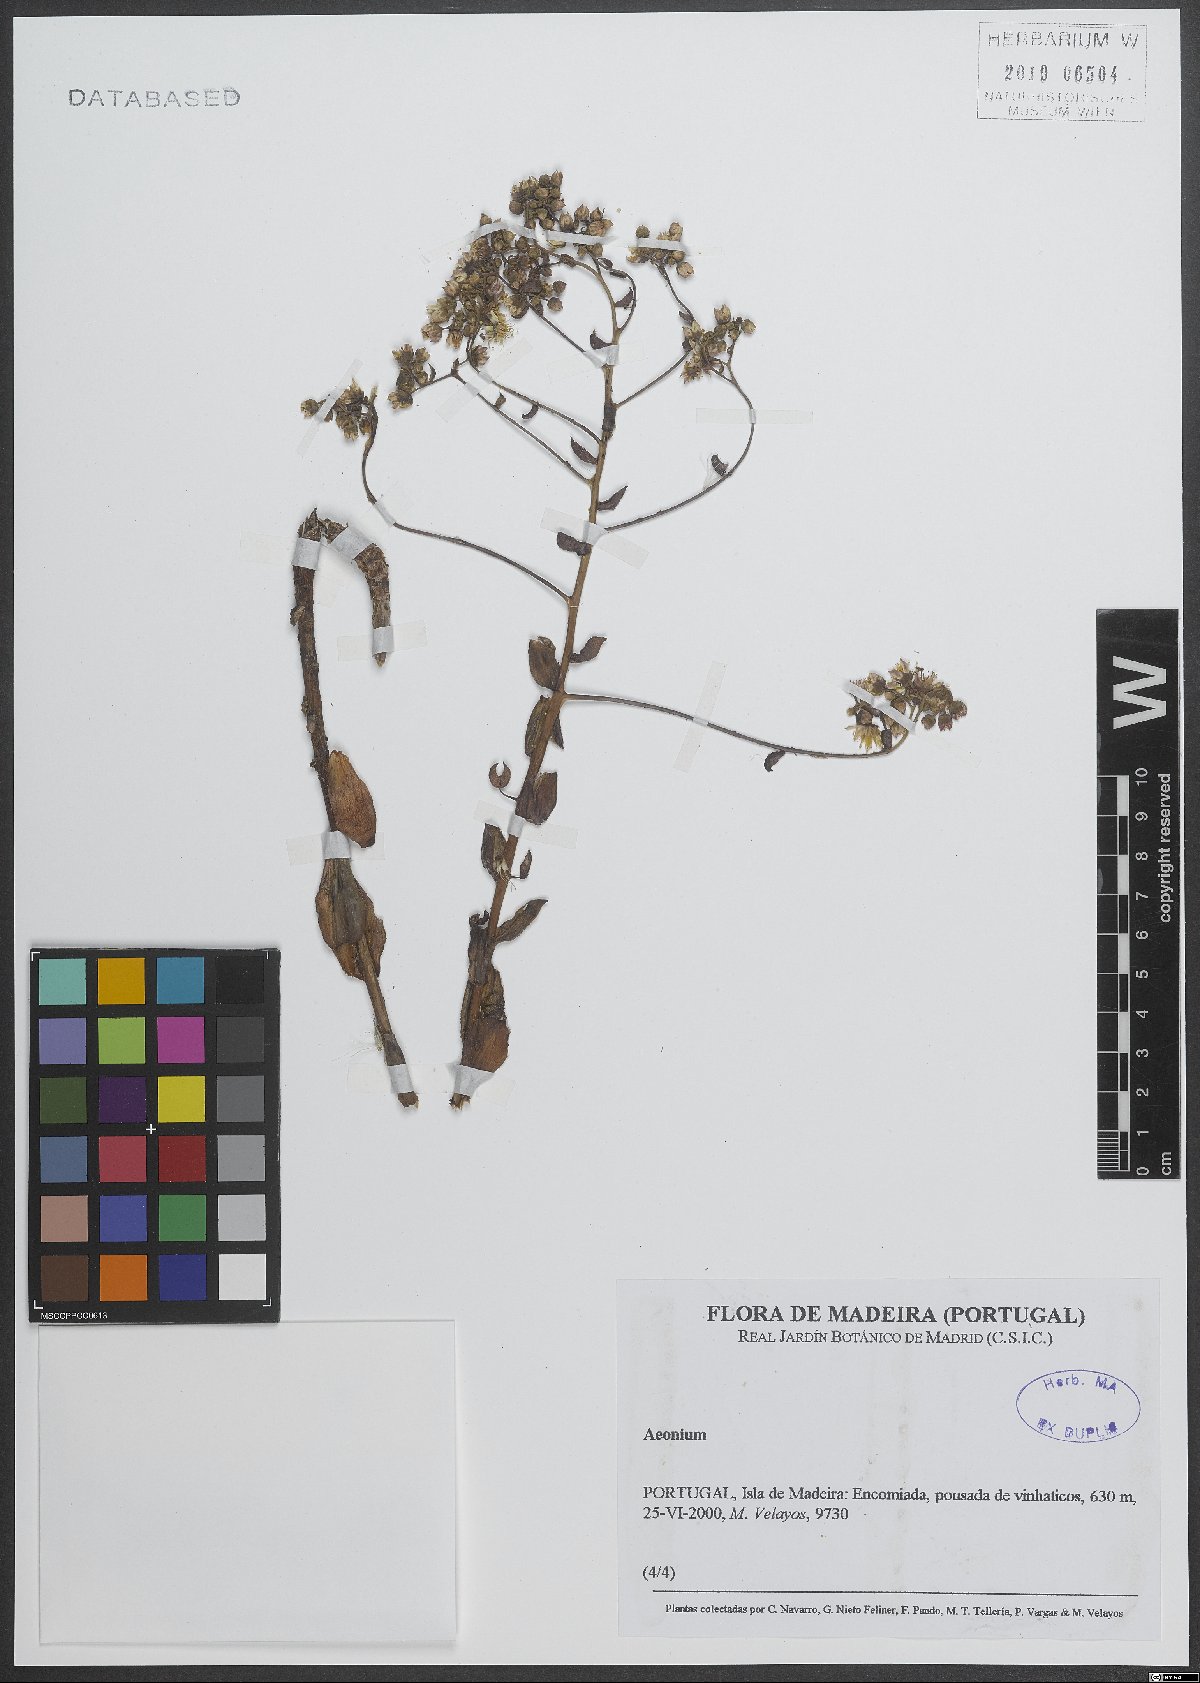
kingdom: Plantae
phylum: Tracheophyta
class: Magnoliopsida
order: Saxifragales
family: Crassulaceae
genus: Aeonium
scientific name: Aeonium
